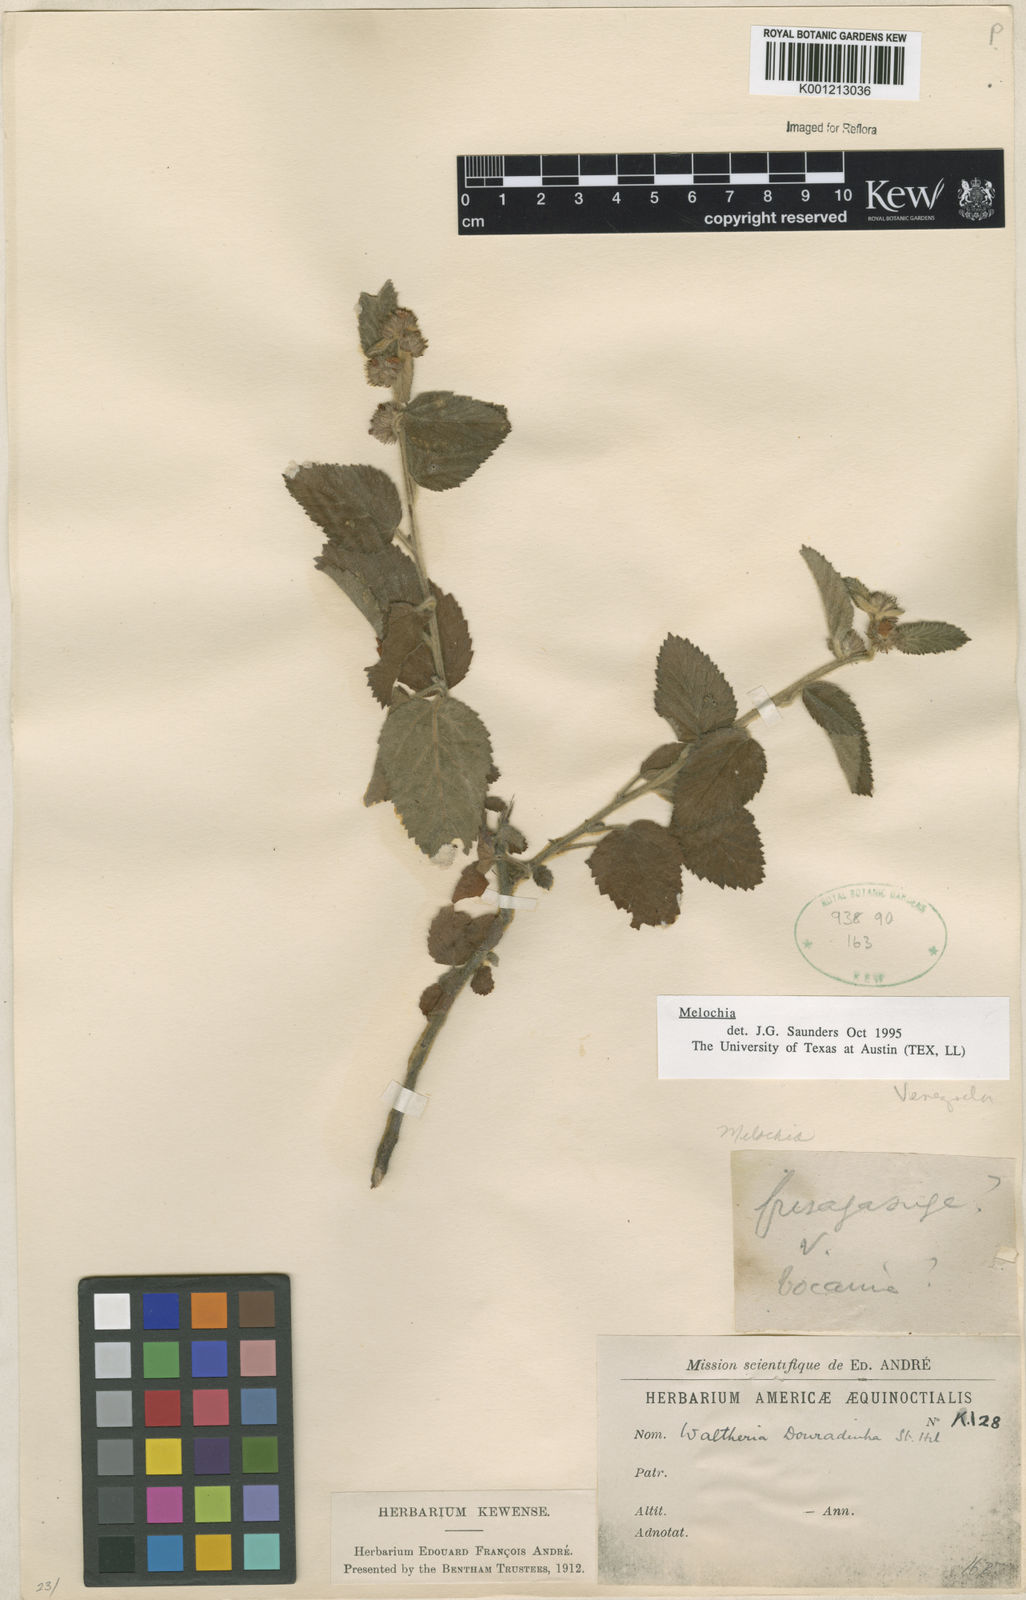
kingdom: Plantae
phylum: Tracheophyta
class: Magnoliopsida
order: Malvales
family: Malvaceae
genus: Melochia
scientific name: Melochia
